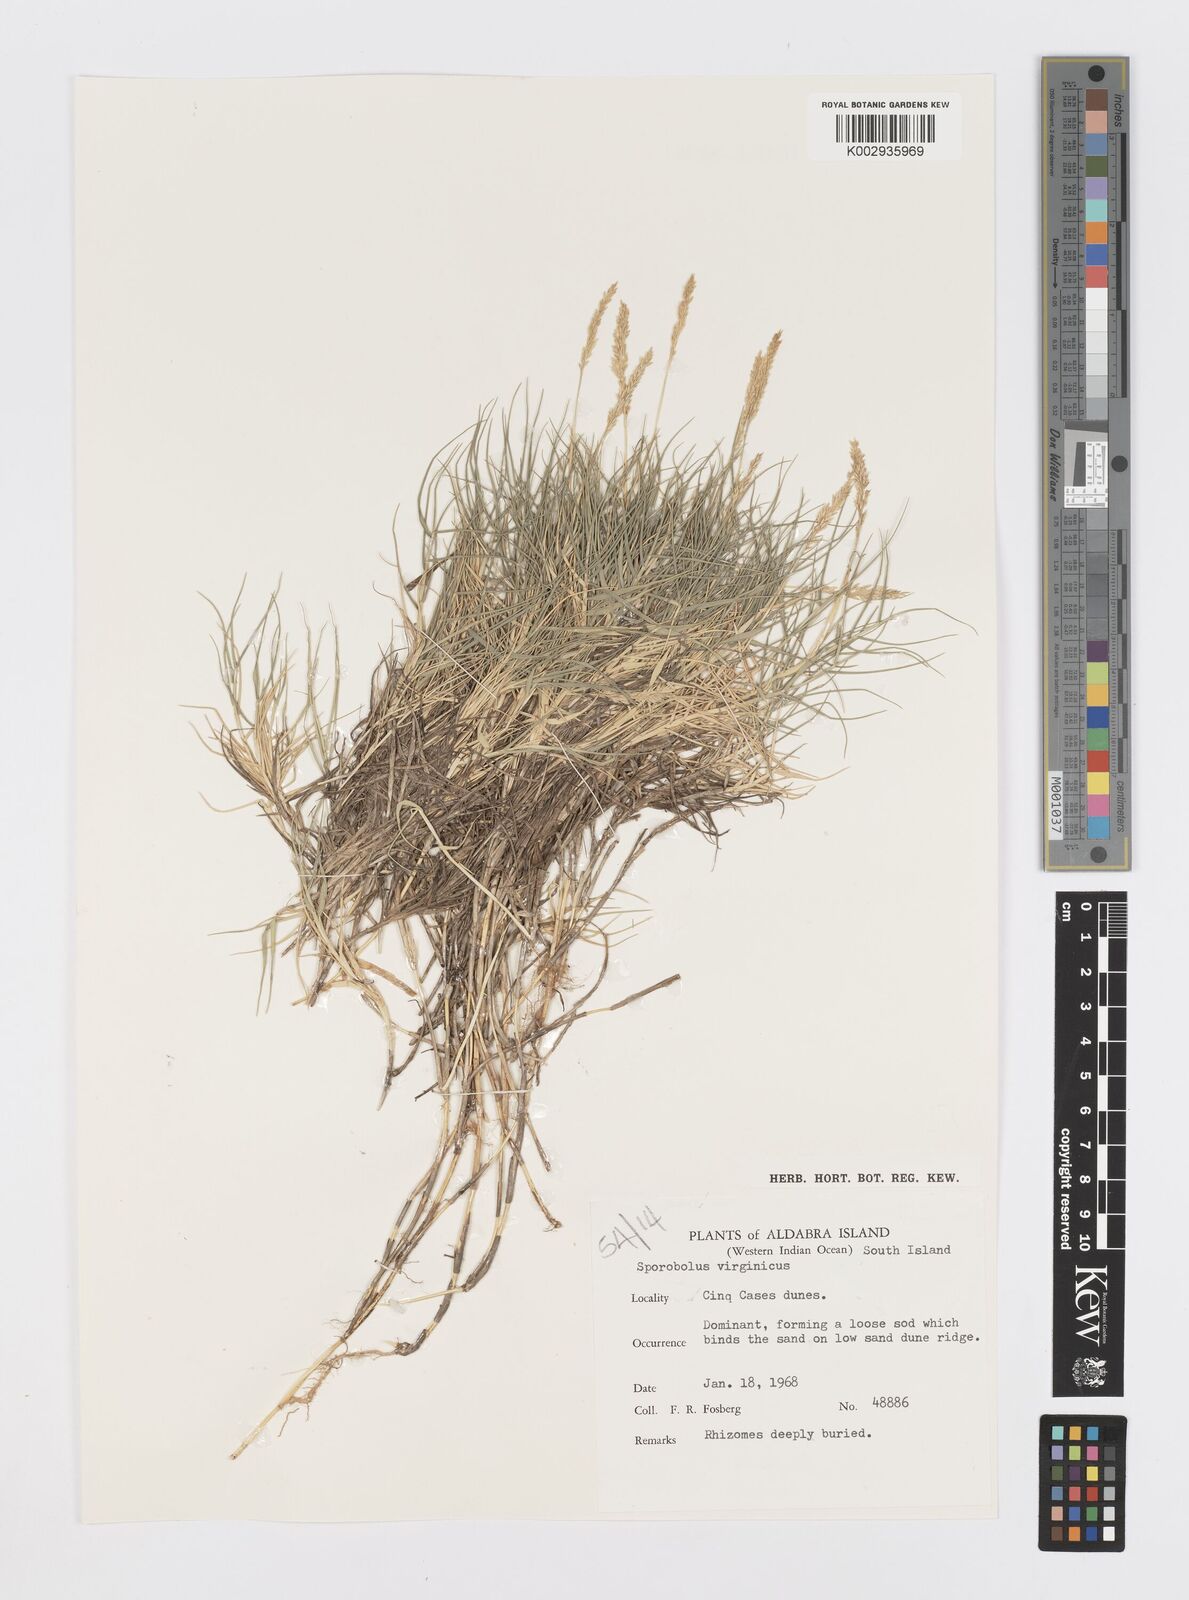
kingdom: Plantae
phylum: Tracheophyta
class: Liliopsida
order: Poales
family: Poaceae
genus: Sporobolus
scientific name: Sporobolus virginicus
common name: Beach dropseed
